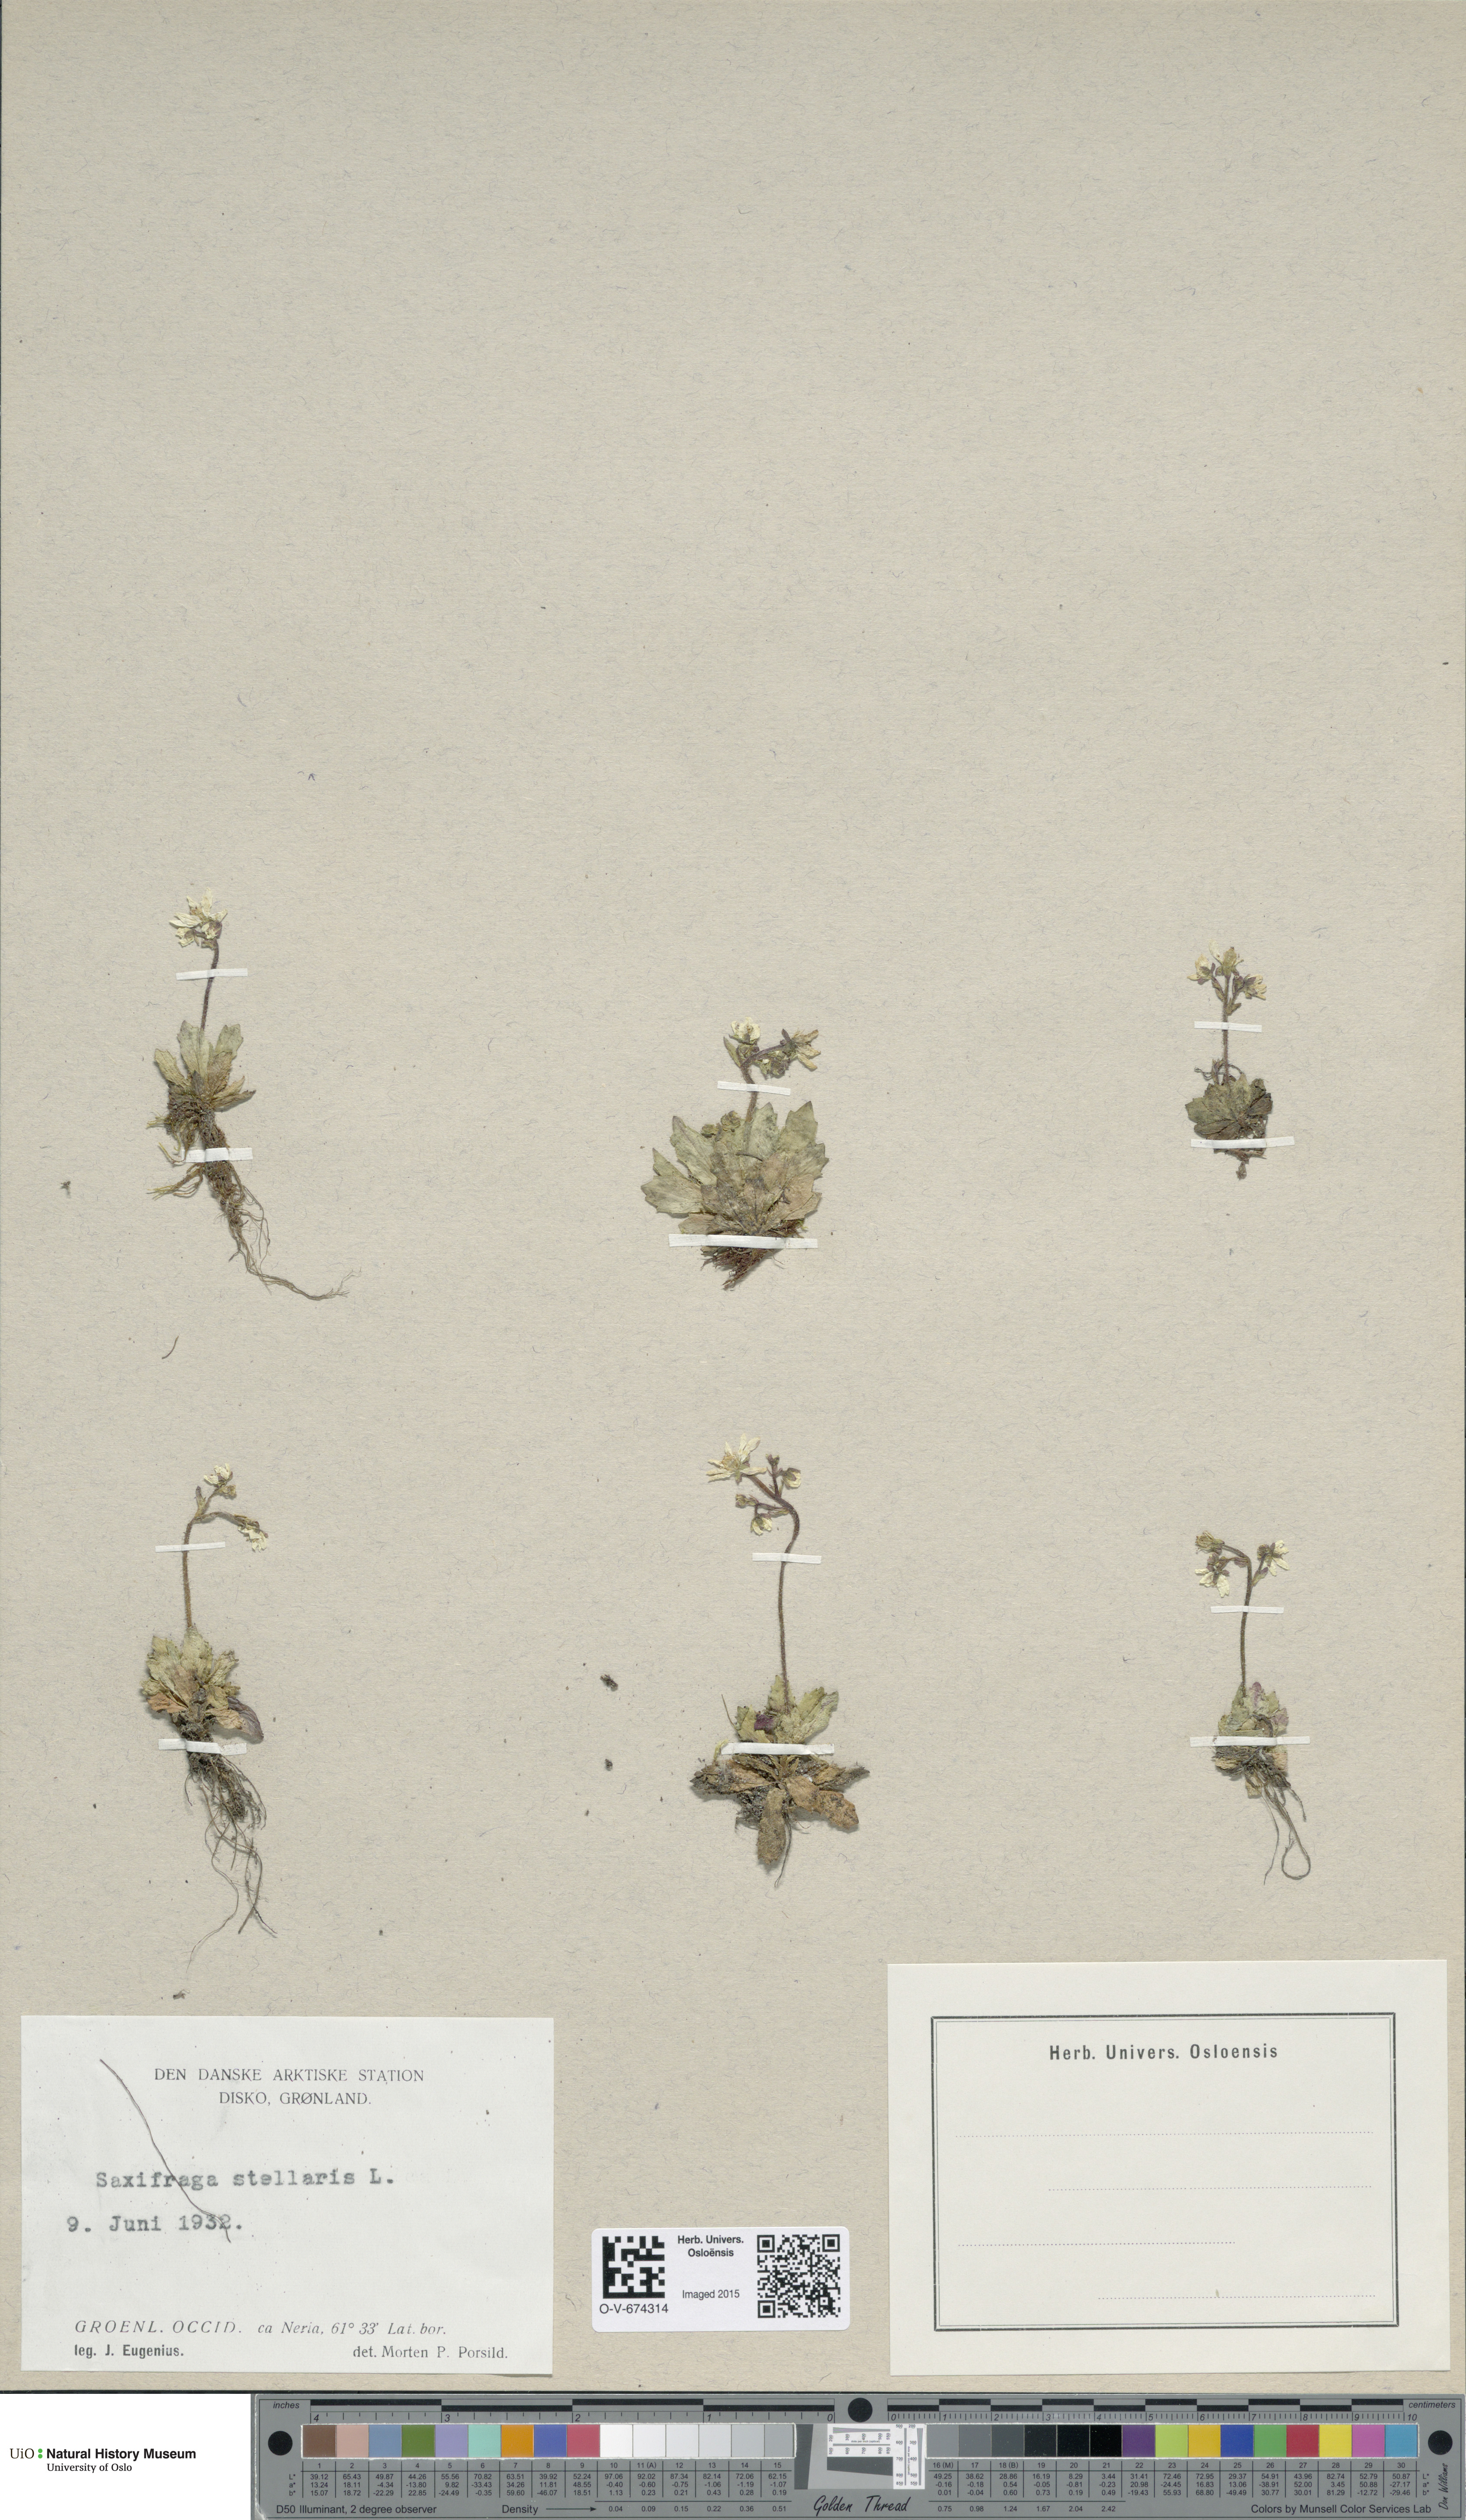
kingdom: Plantae
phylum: Tracheophyta
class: Magnoliopsida
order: Saxifragales
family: Saxifragaceae
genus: Micranthes
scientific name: Micranthes stellaris
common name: Starry saxifrage
